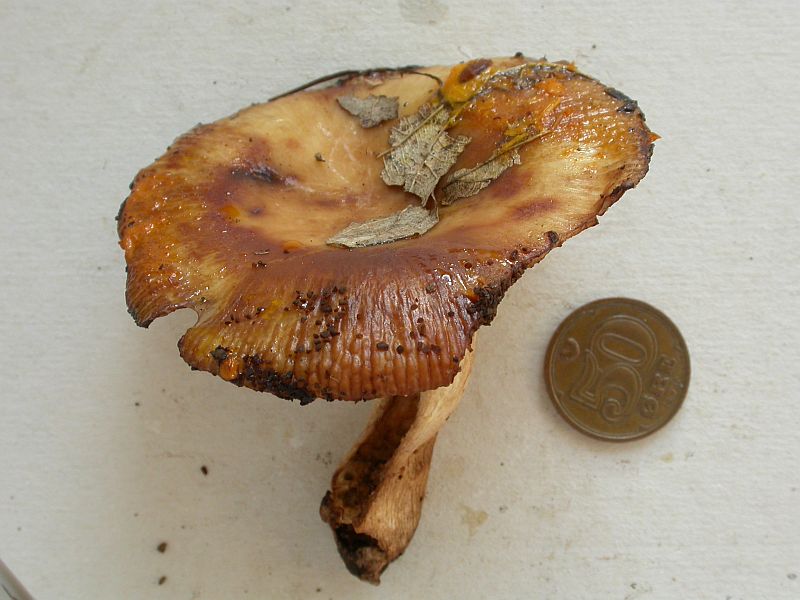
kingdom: Fungi
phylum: Basidiomycota
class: Agaricomycetes
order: Russulales
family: Russulaceae
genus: Russula
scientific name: Russula grata
